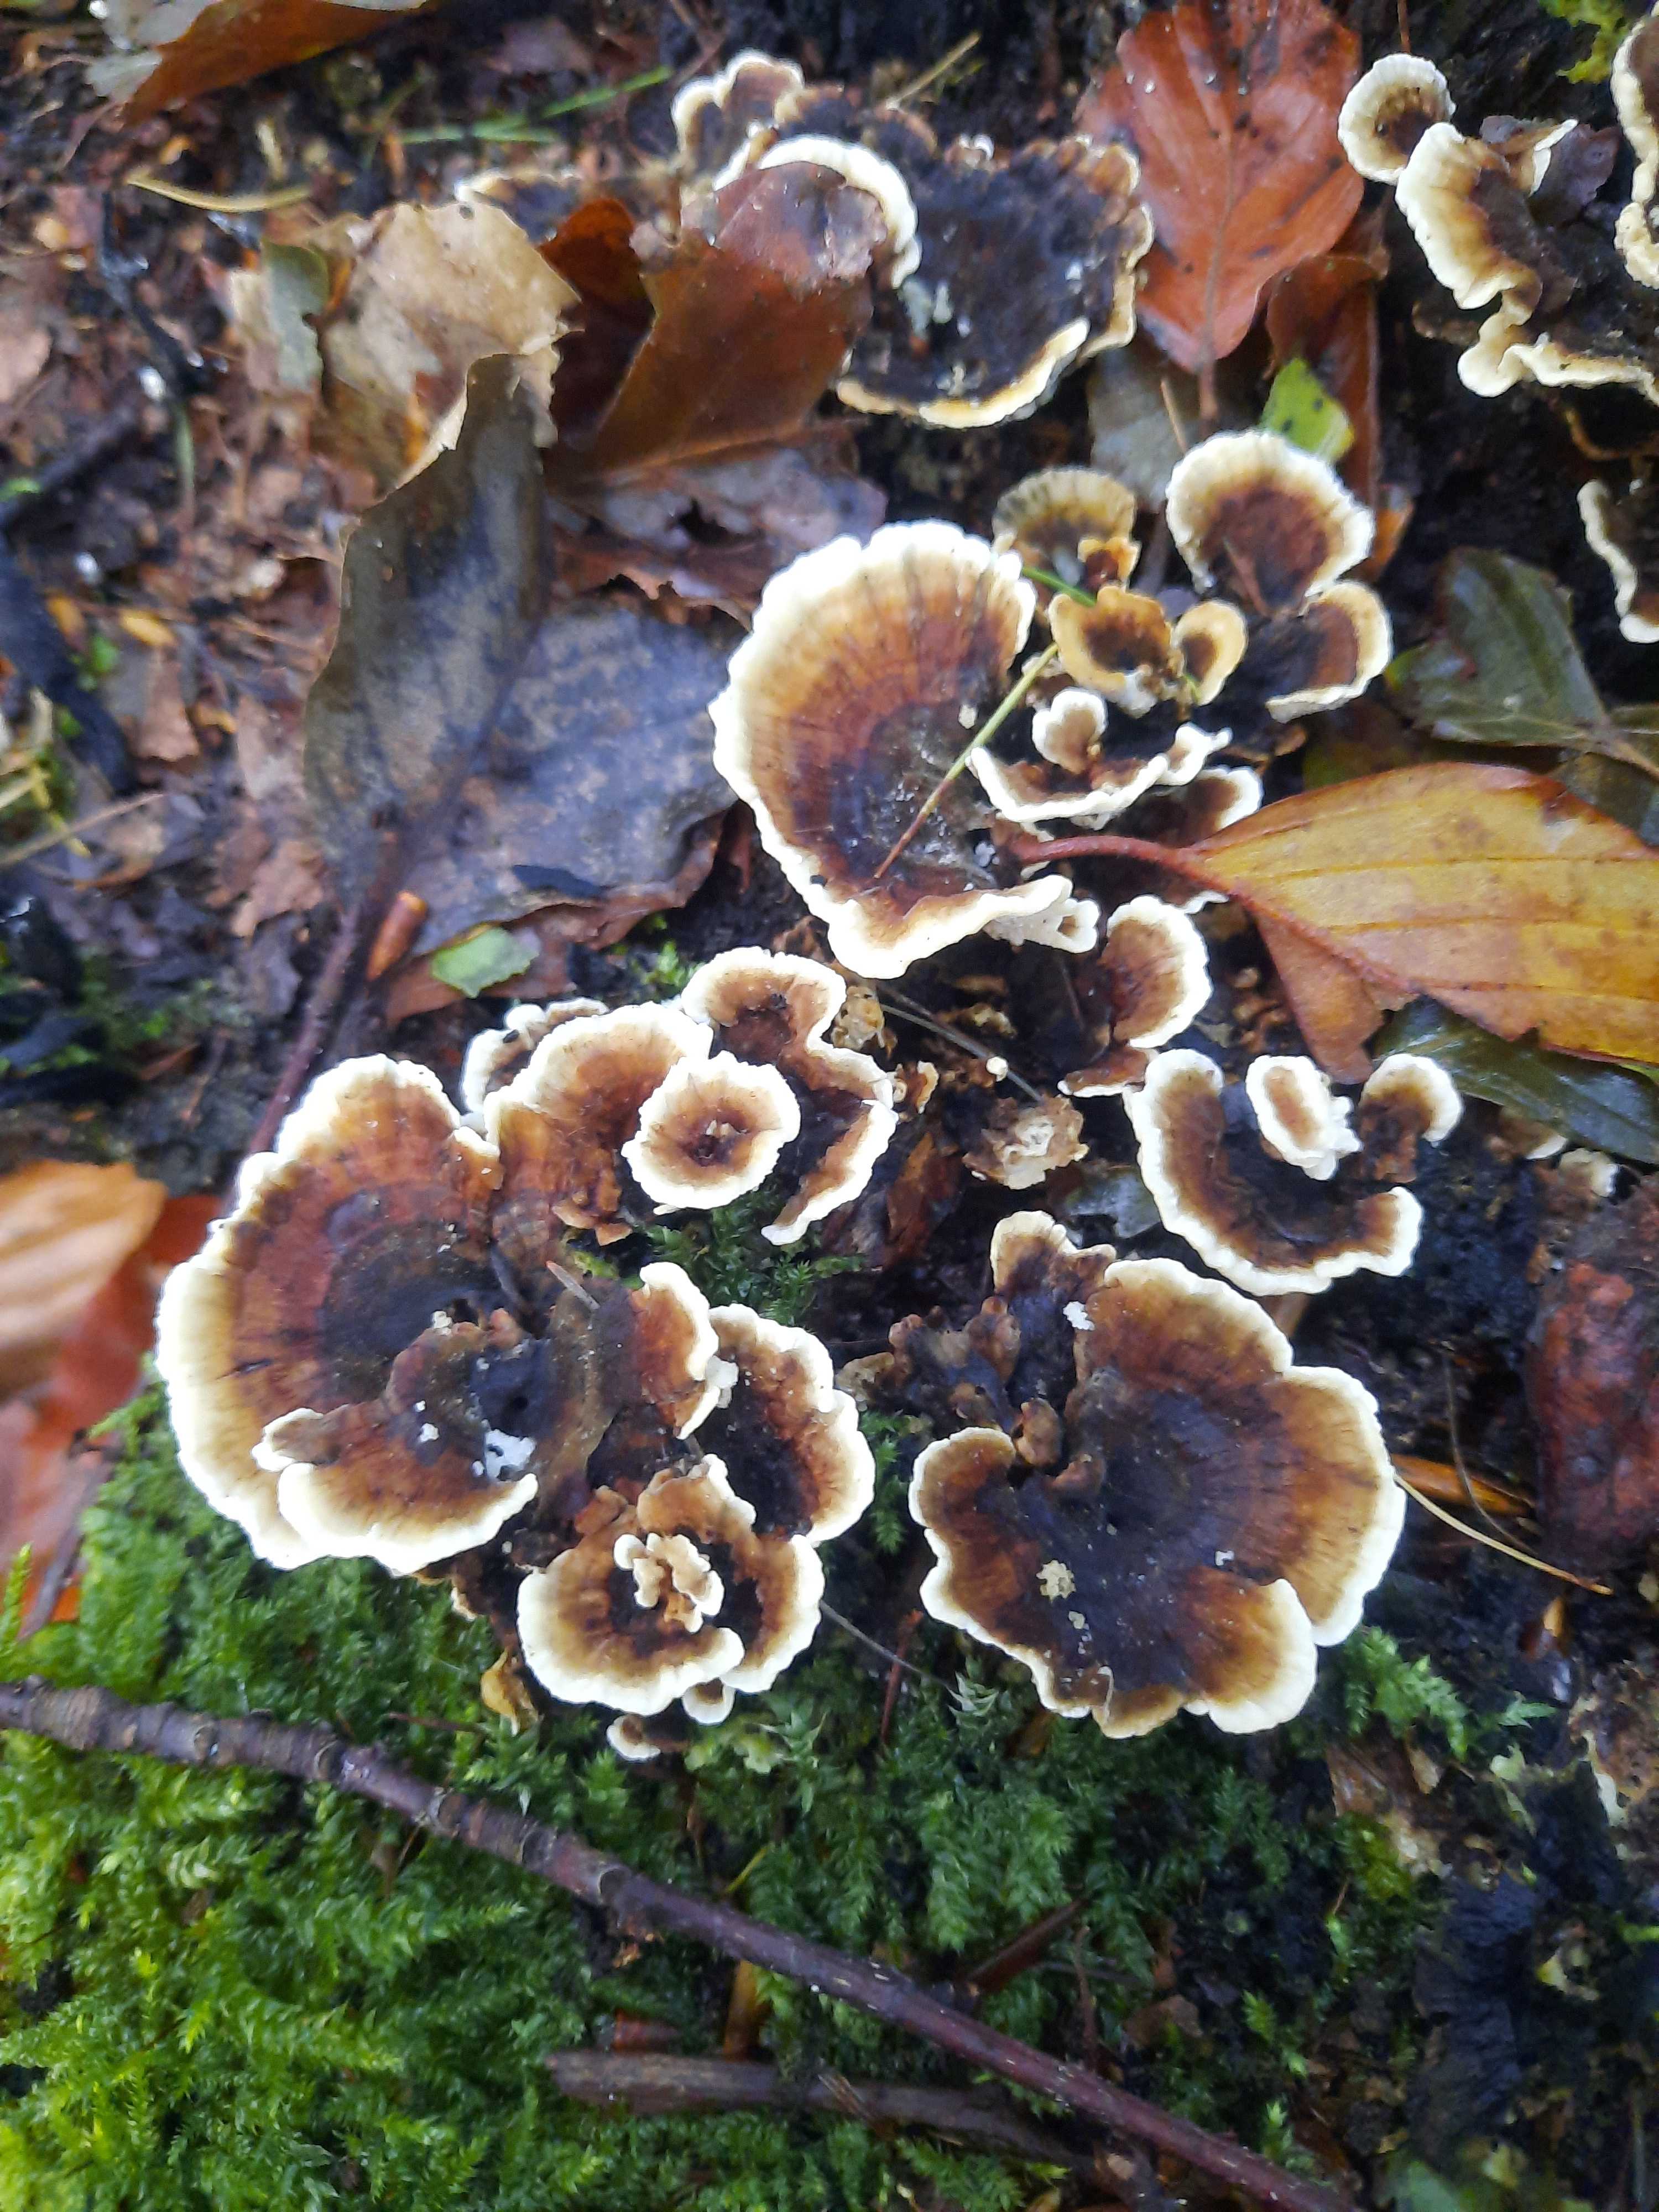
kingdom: Fungi
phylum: Basidiomycota
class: Agaricomycetes
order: Polyporales
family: Polyporaceae
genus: Trametes
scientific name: Trametes versicolor
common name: broget læderporesvamp
